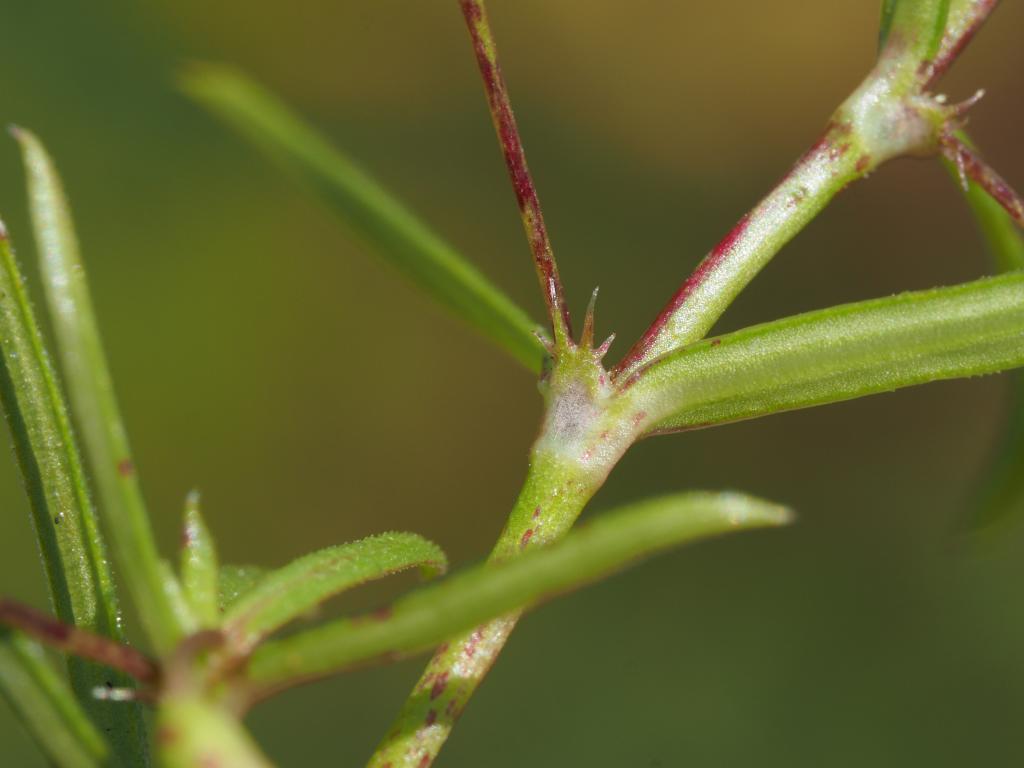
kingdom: Plantae
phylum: Tracheophyta
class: Magnoliopsida
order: Gentianales
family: Rubiaceae
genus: Oldenlandia
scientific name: Oldenlandia corymbosa
